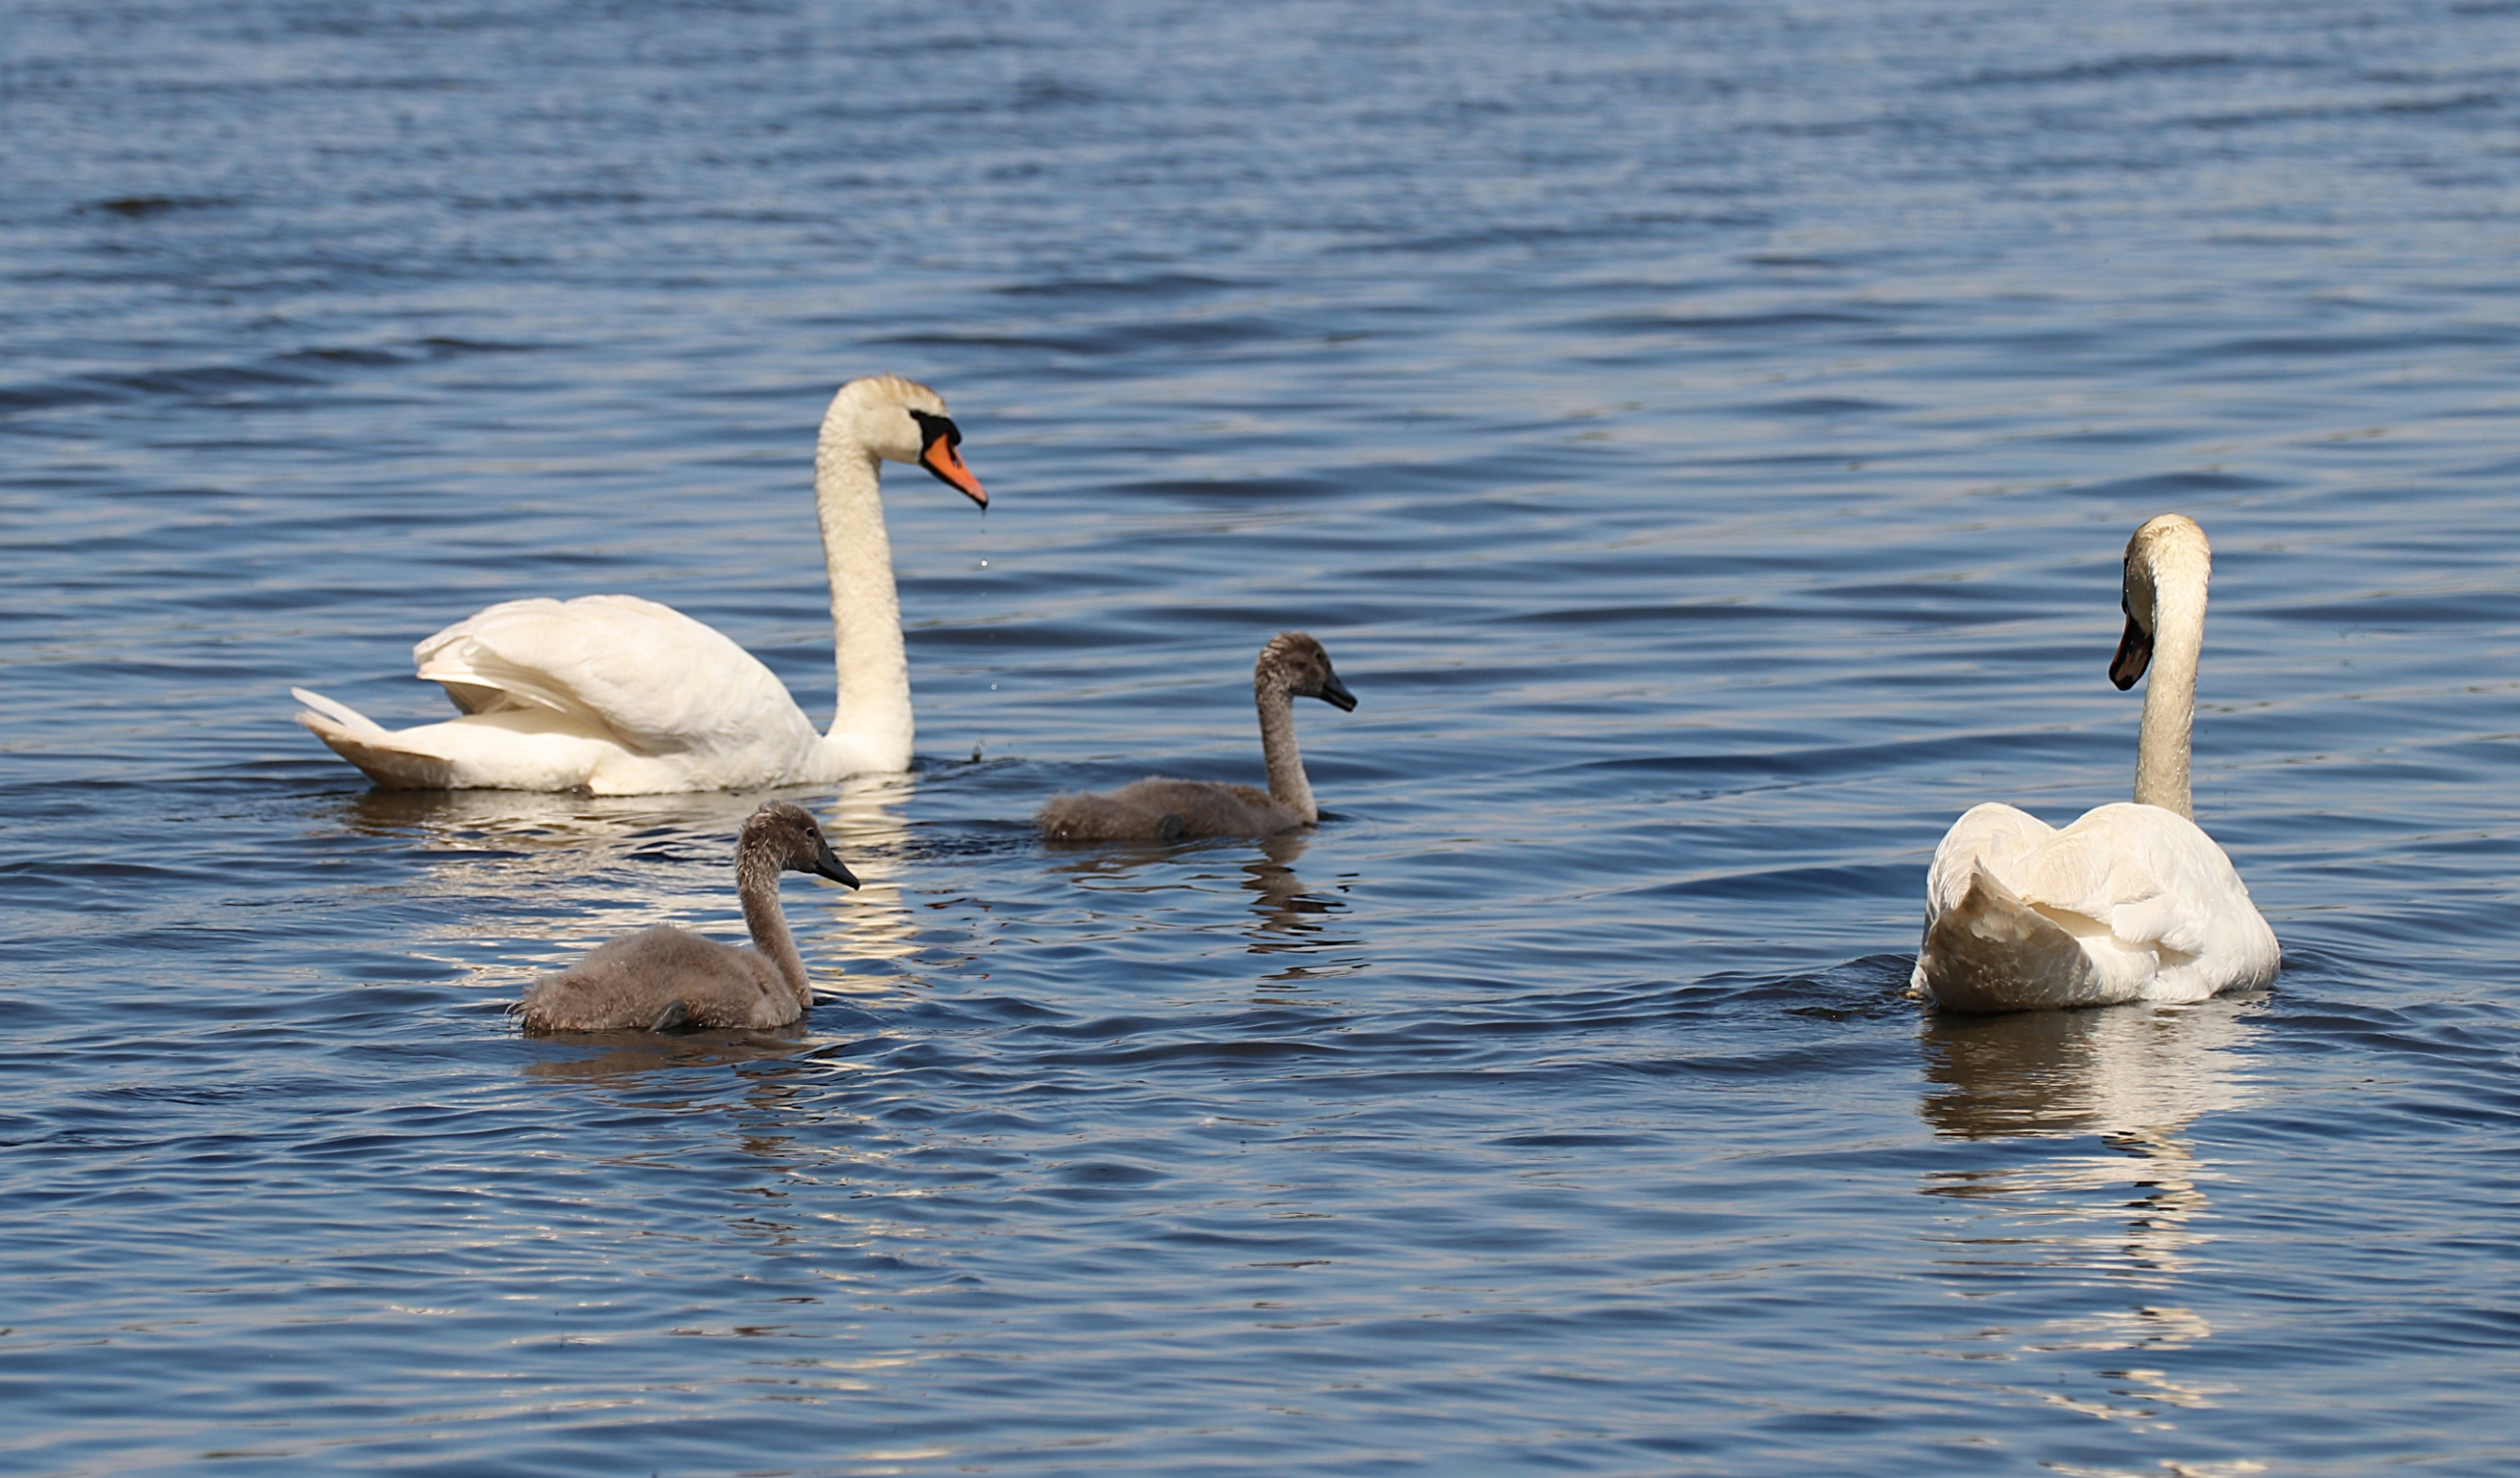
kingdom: Animalia
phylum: Chordata
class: Aves
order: Anseriformes
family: Anatidae
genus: Cygnus
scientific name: Cygnus olor
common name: Knopsvane
